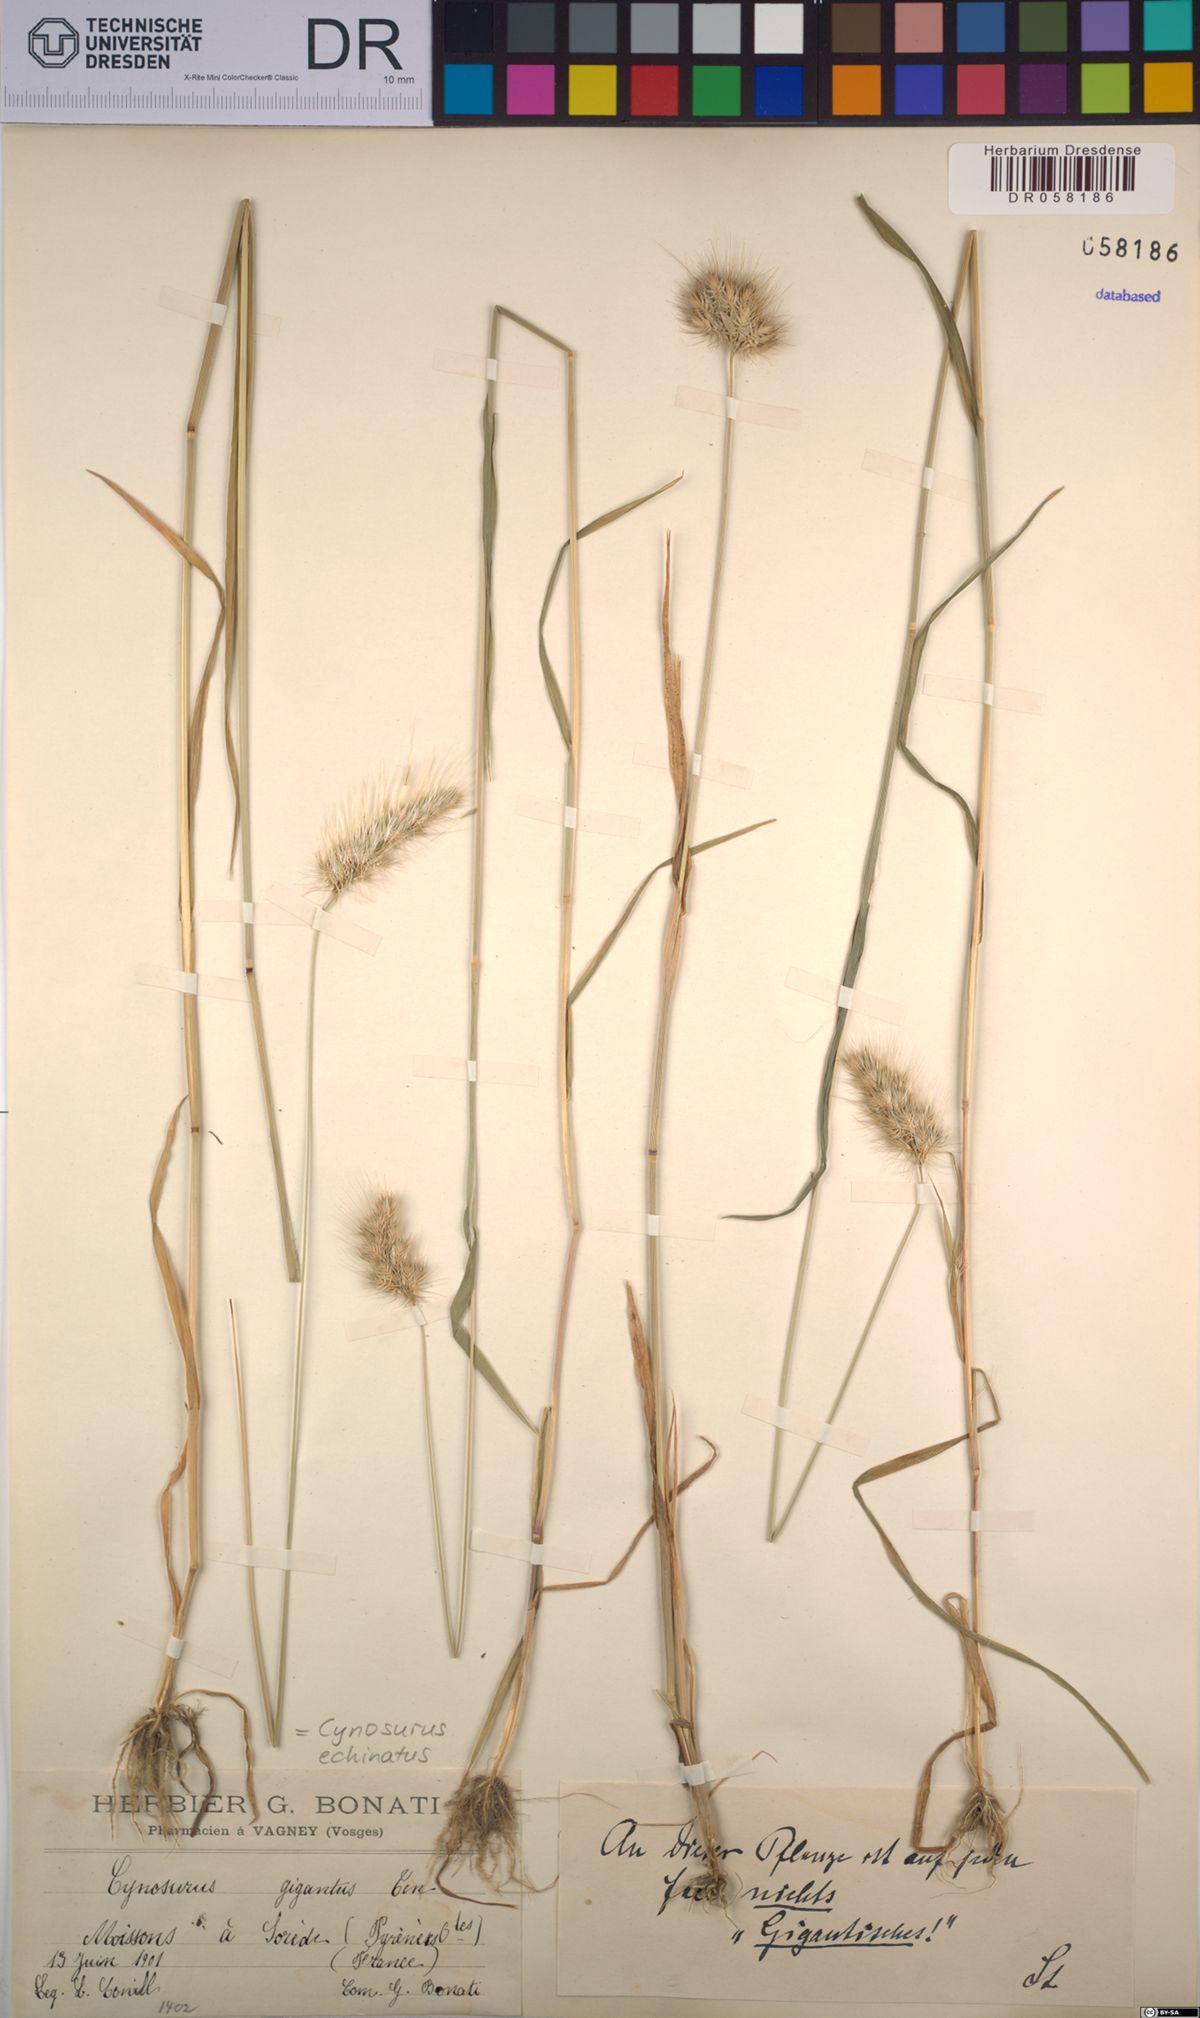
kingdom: Plantae
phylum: Tracheophyta
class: Liliopsida
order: Poales
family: Poaceae
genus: Cynosurus
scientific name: Cynosurus echinatus
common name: Rough dog's-tail
